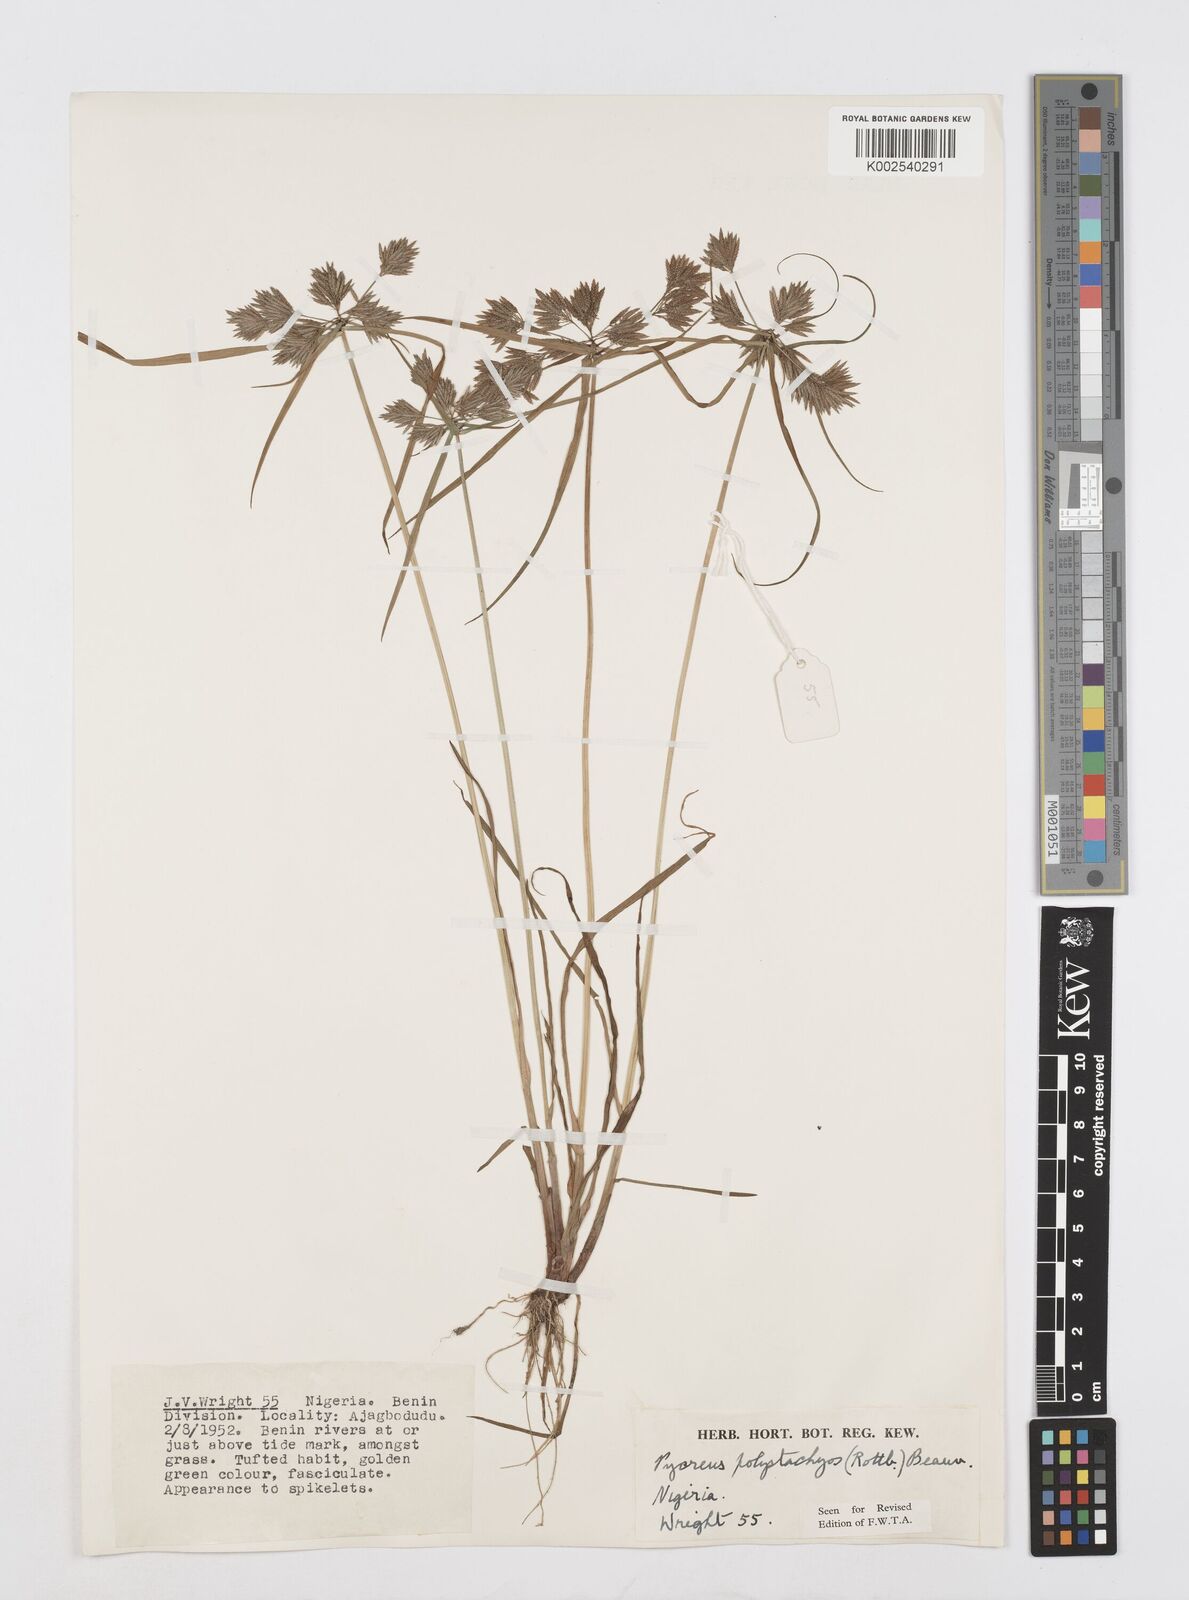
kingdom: Plantae
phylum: Tracheophyta
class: Liliopsida
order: Poales
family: Cyperaceae
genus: Cyperus
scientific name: Cyperus polystachyos
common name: Bunchy flat sedge
